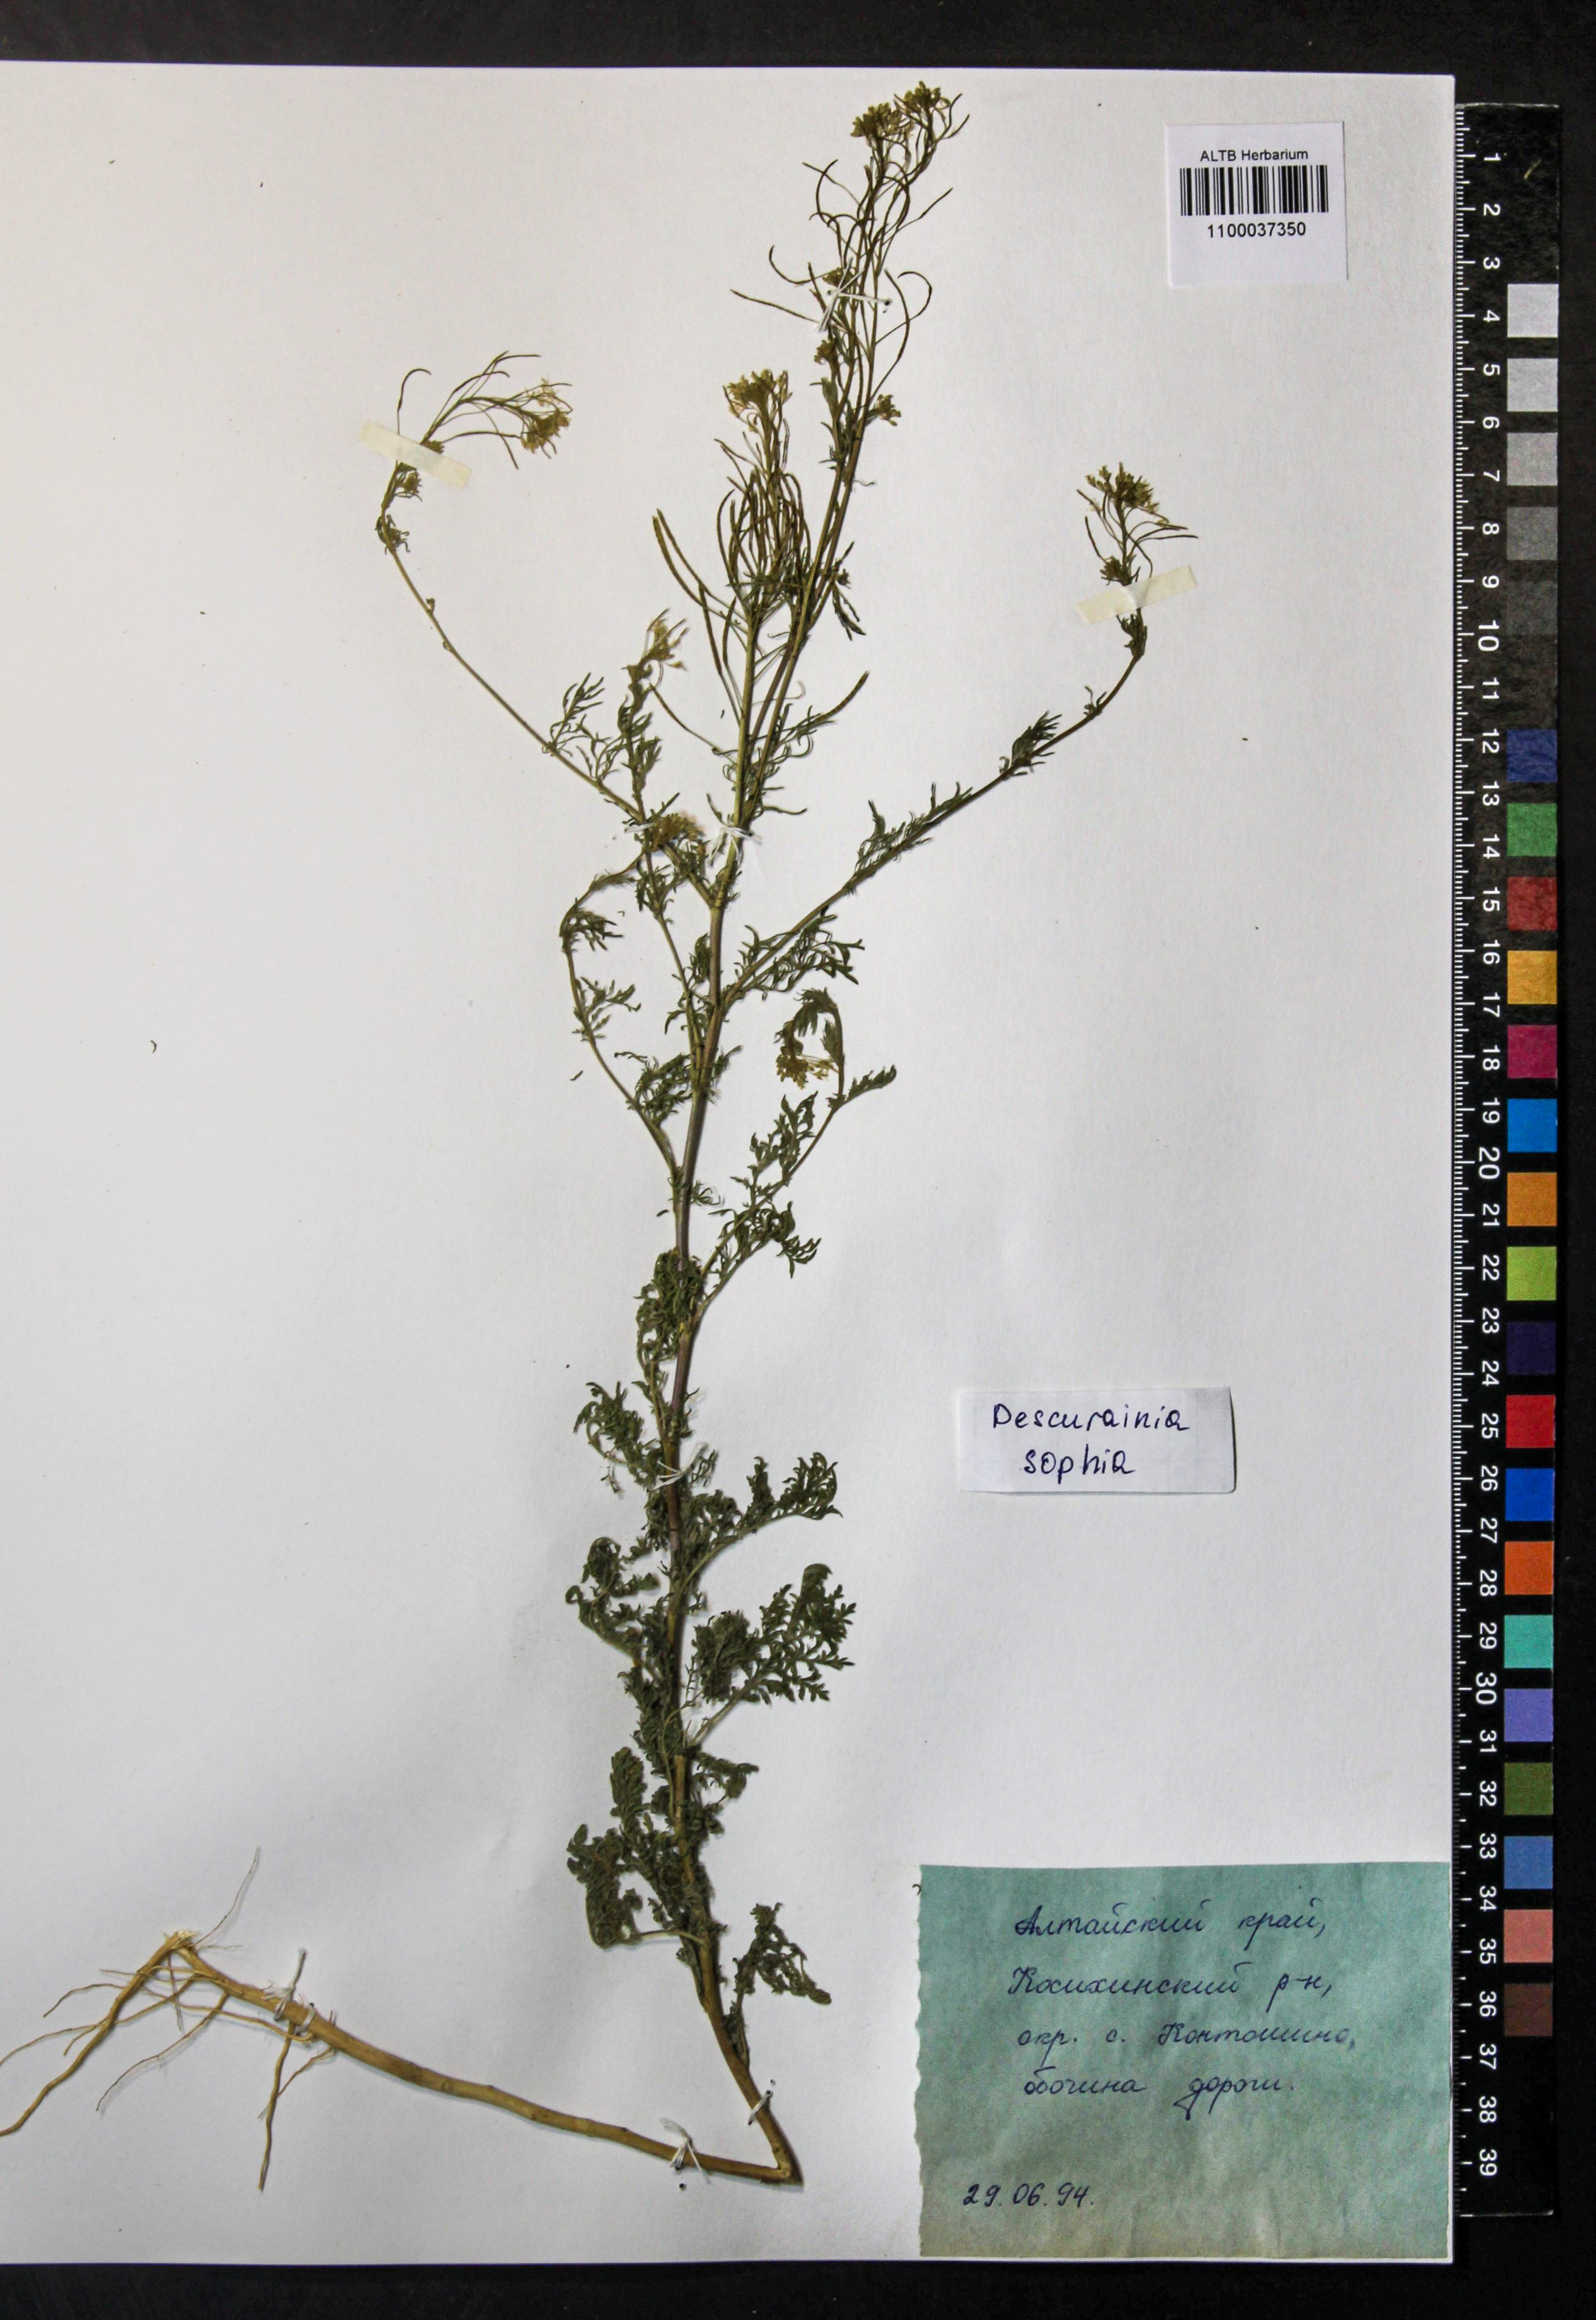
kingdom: Plantae
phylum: Tracheophyta
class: Magnoliopsida
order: Brassicales
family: Brassicaceae
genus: Descurainia
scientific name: Descurainia sophia
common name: Flixweed
